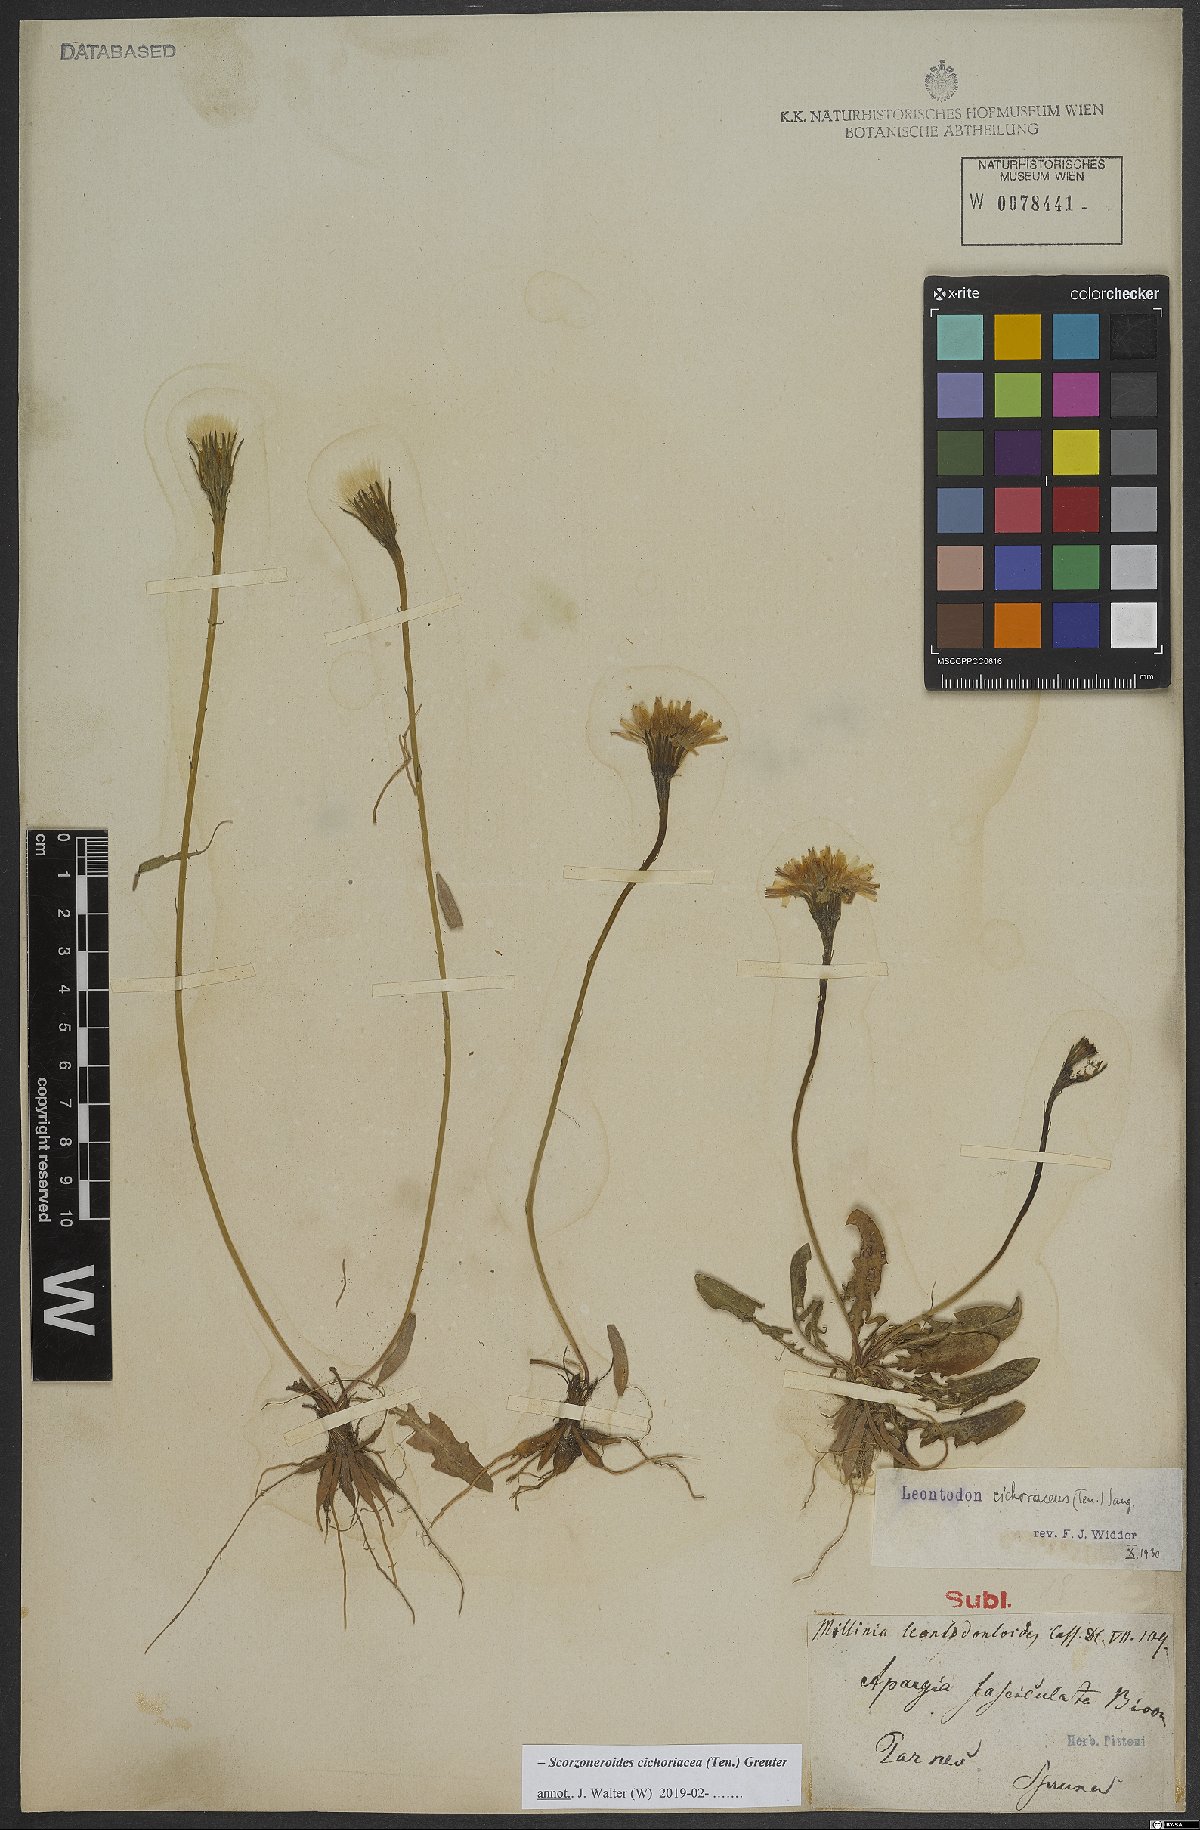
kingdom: Plantae
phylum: Tracheophyta
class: Magnoliopsida
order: Asterales
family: Asteraceae
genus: Scorzoneroides
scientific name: Scorzoneroides cichoriacea
